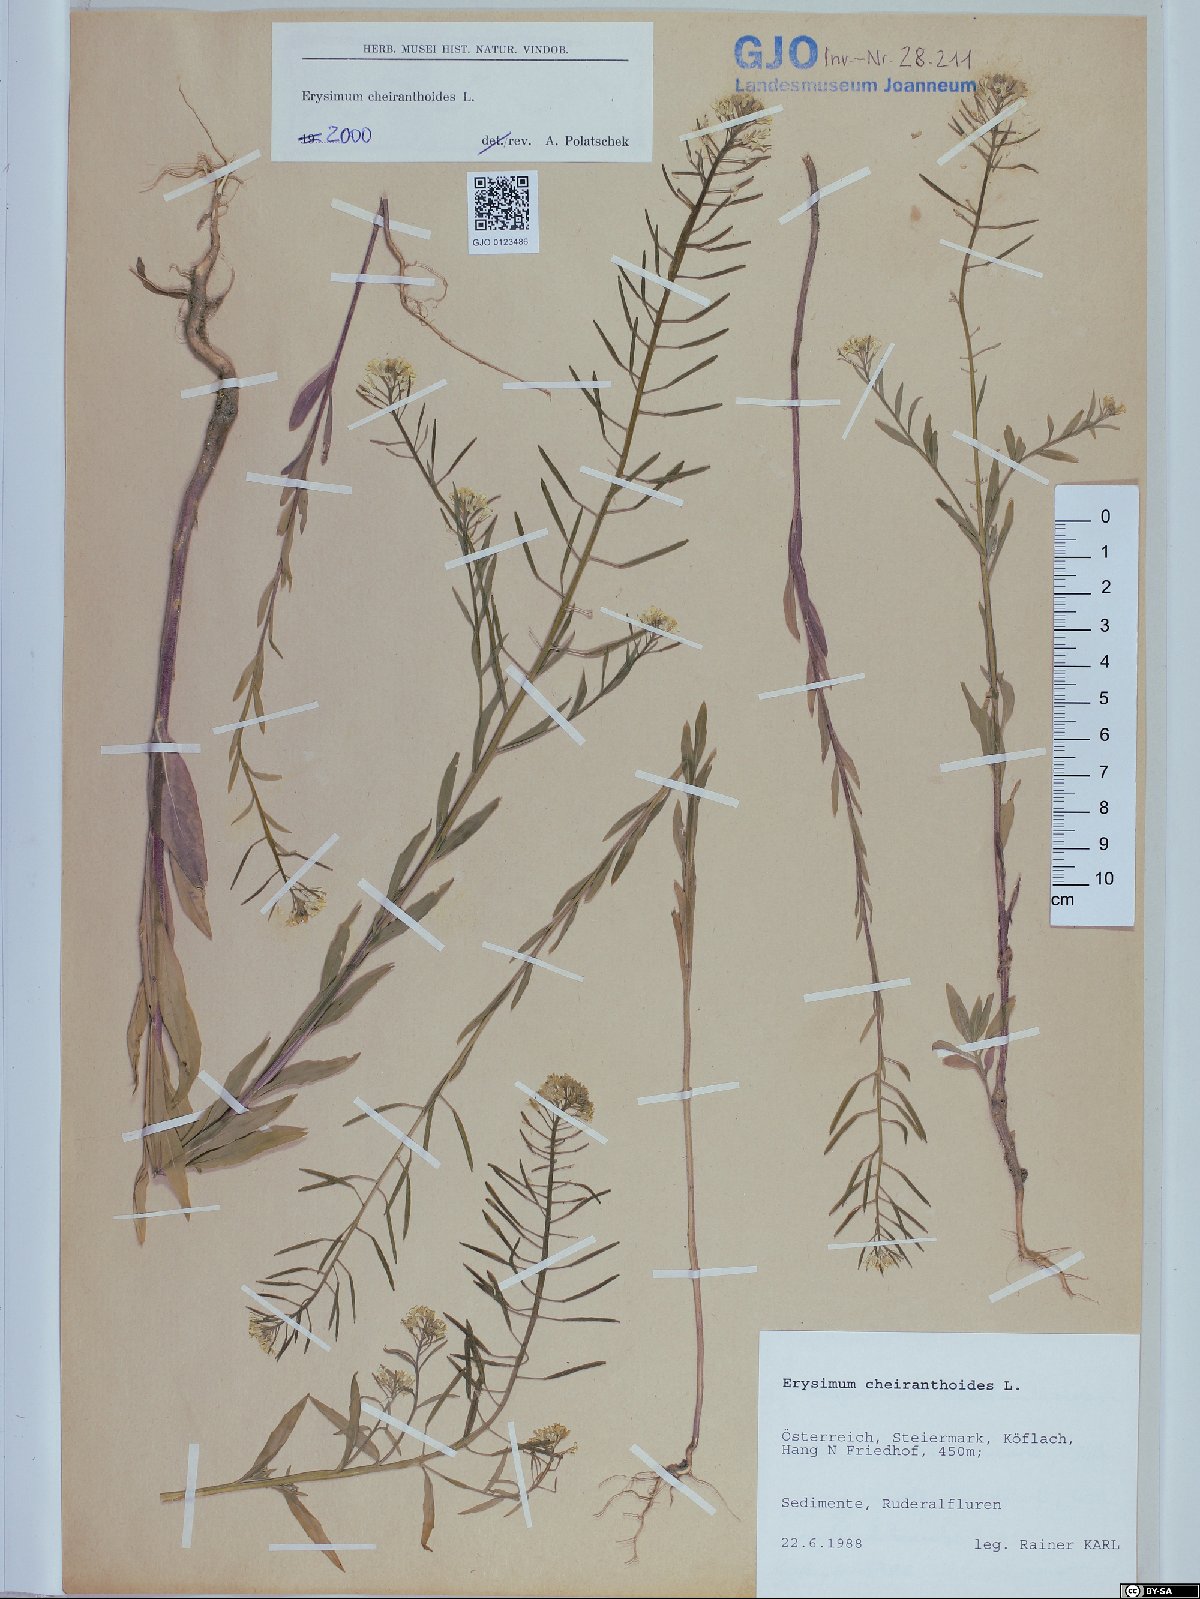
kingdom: Plantae
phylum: Tracheophyta
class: Magnoliopsida
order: Brassicales
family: Brassicaceae
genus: Erysimum
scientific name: Erysimum cheiranthoides
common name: Treacle mustard
